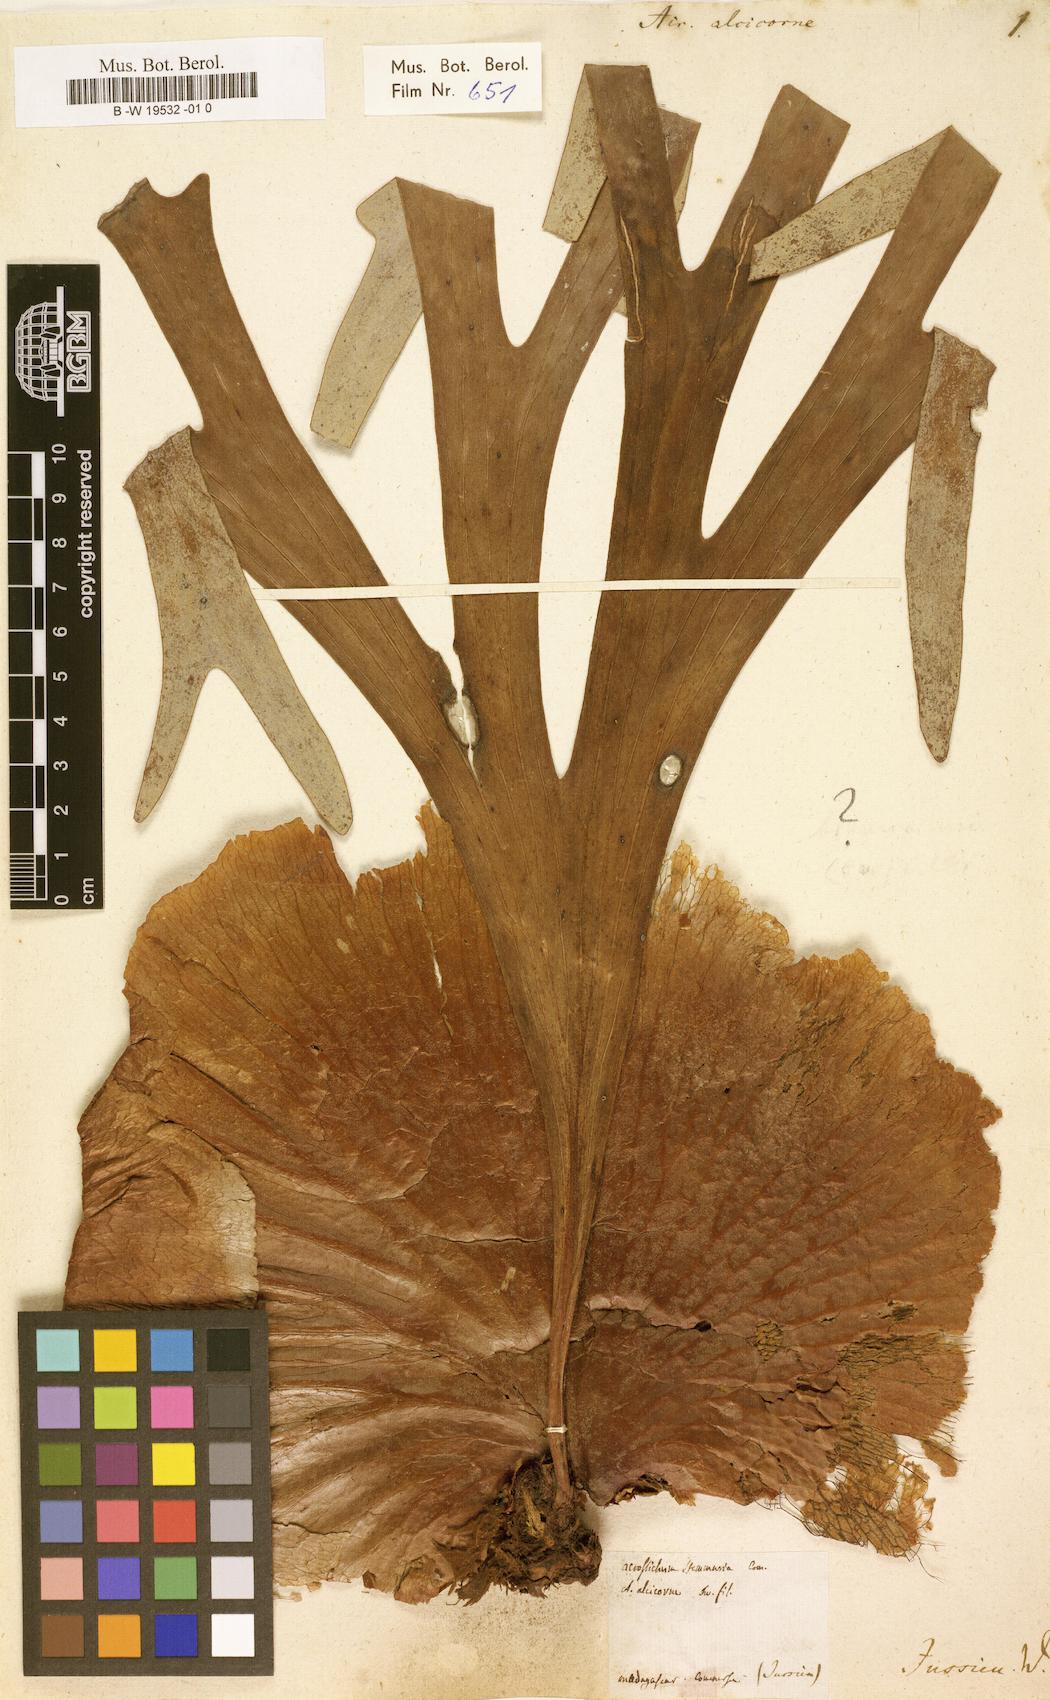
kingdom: Plantae
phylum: Tracheophyta
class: Polypodiopsida
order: Polypodiales
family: Polypodiaceae
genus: Platycerium
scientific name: Platycerium alcicorne
